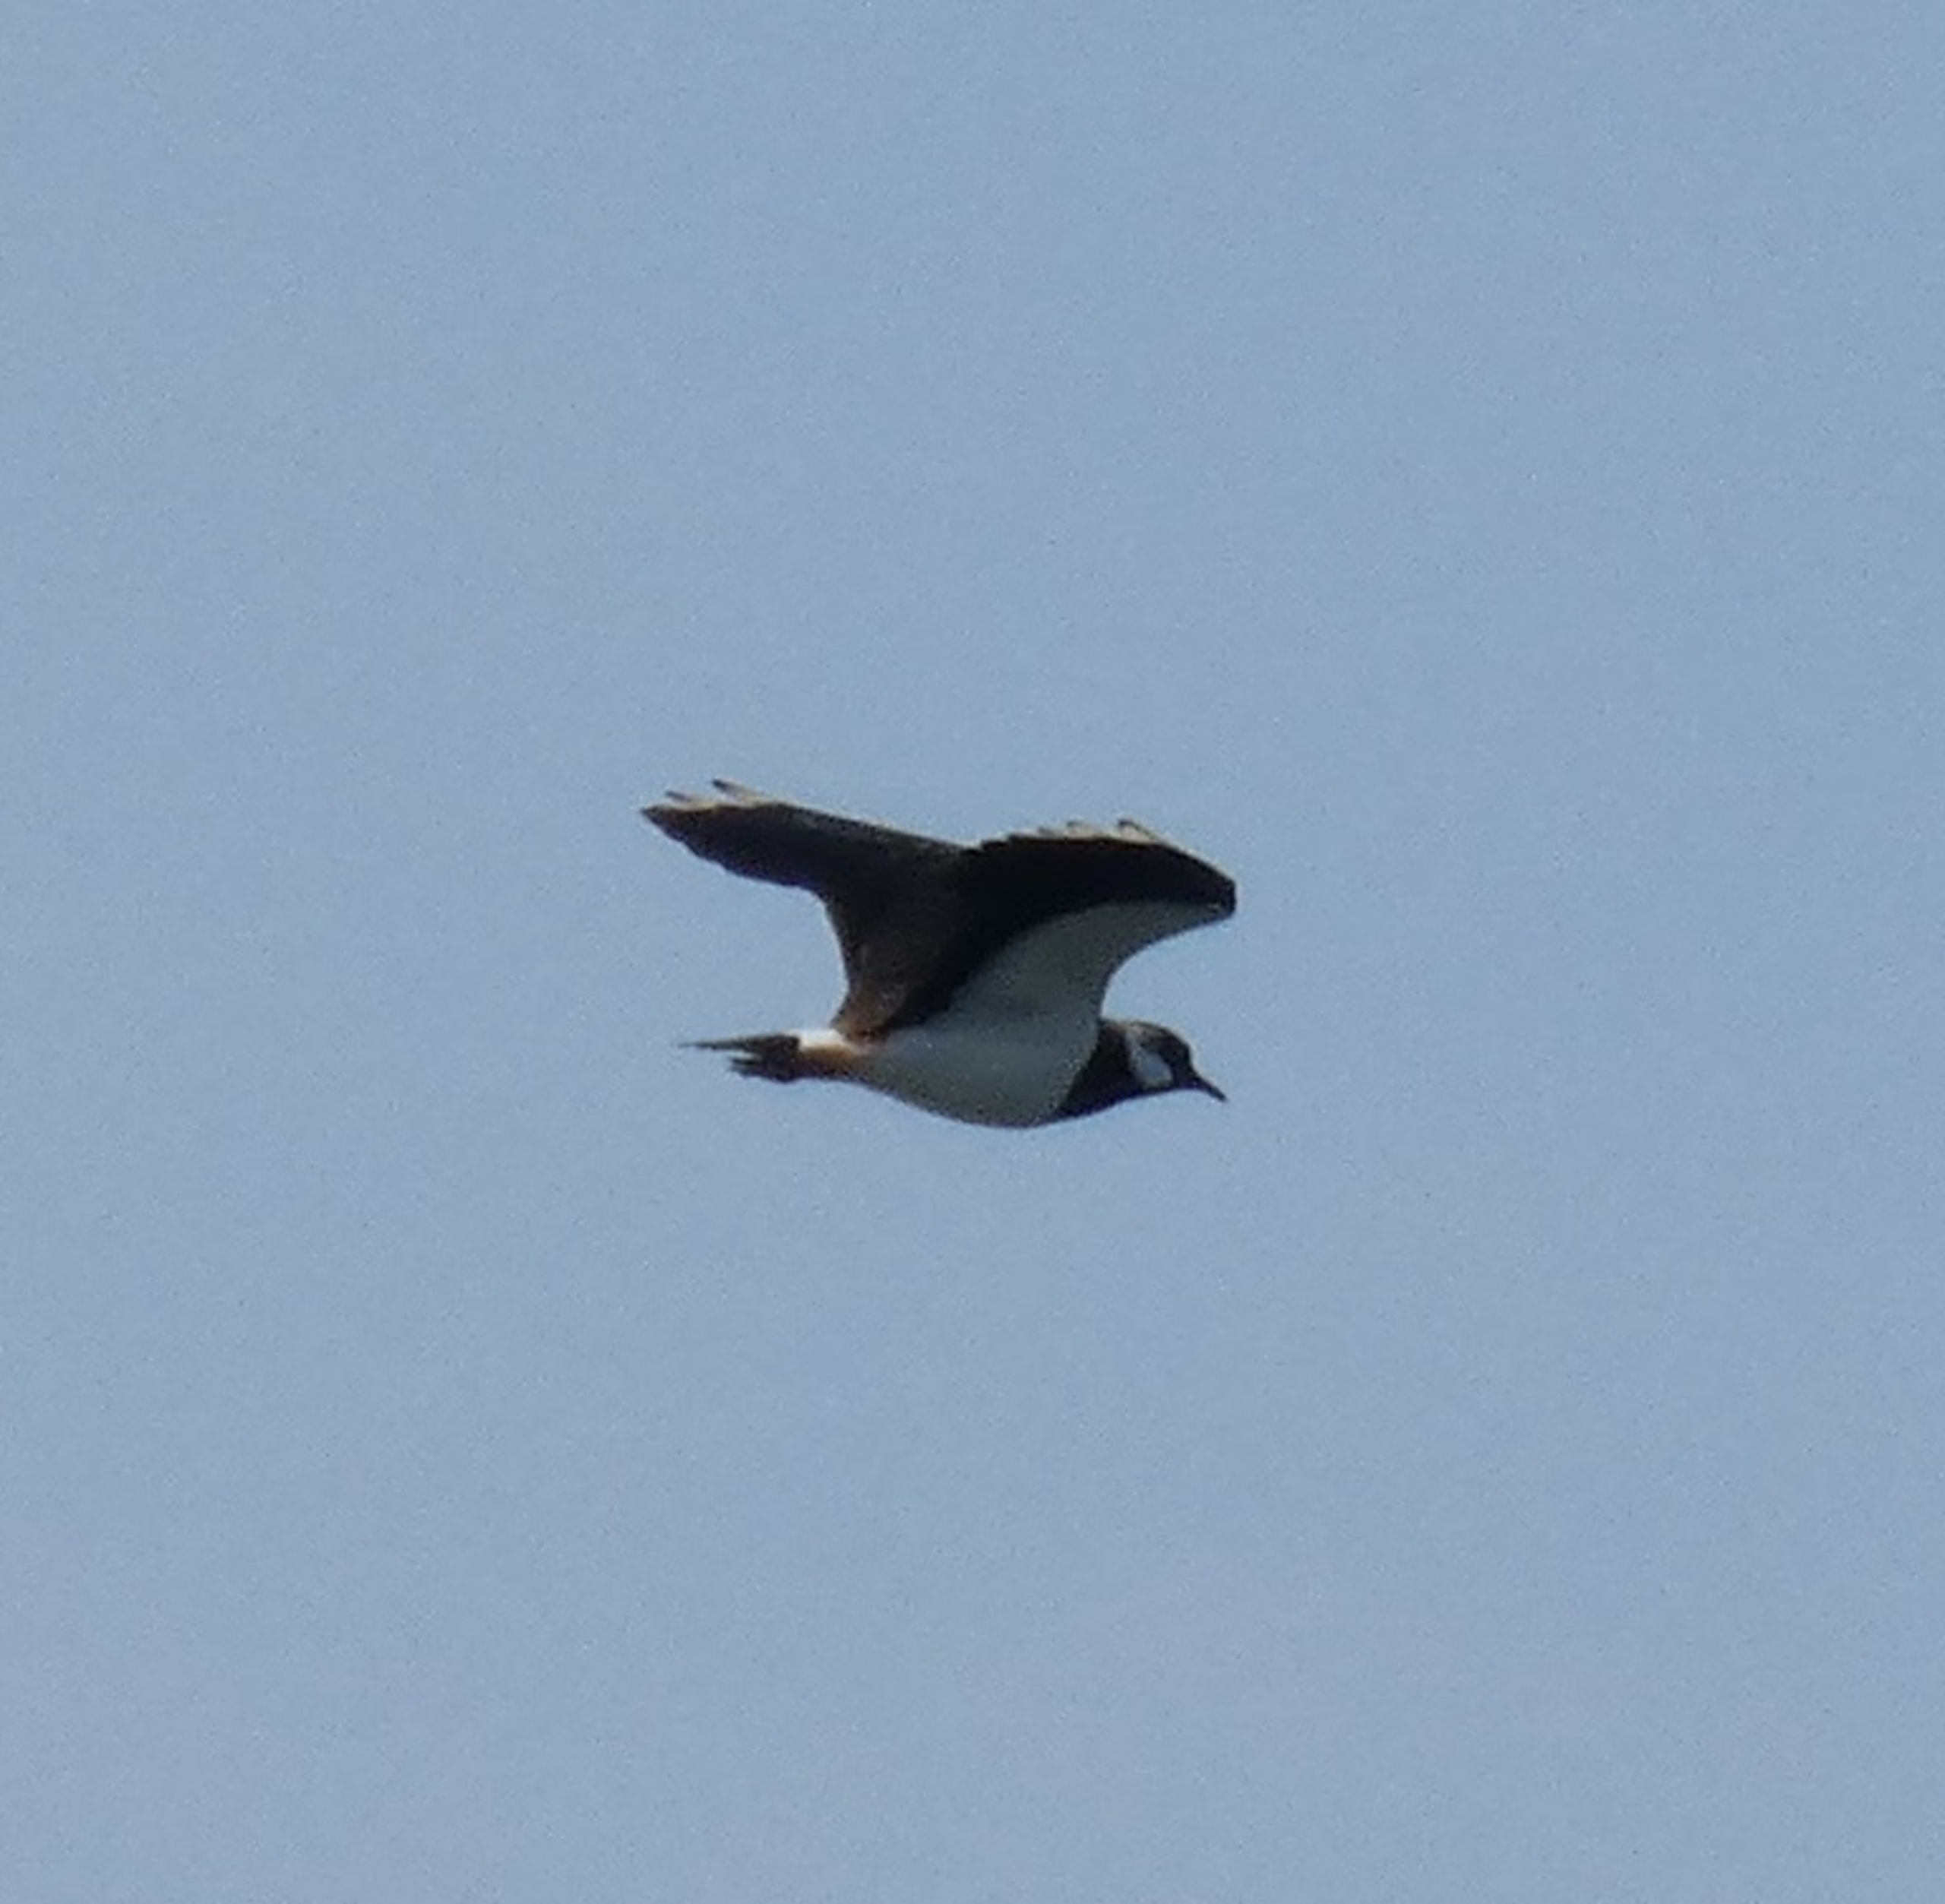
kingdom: Animalia
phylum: Chordata
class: Aves
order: Charadriiformes
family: Charadriidae
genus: Vanellus
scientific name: Vanellus vanellus
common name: Vibe
